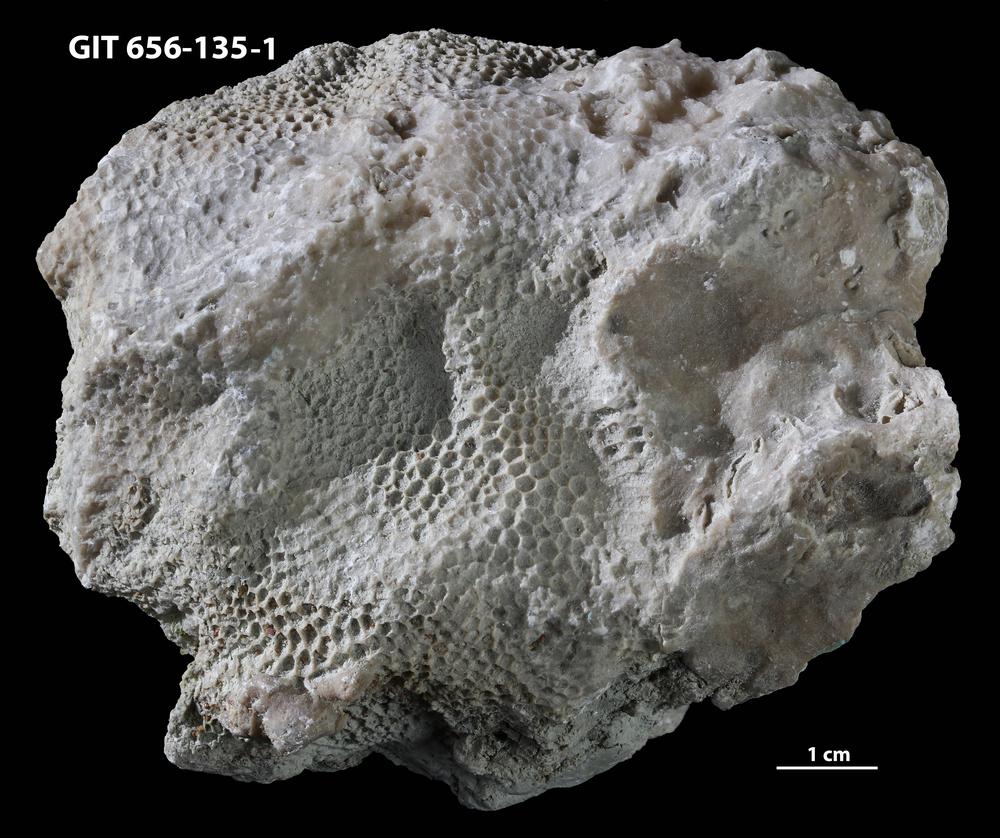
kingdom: Animalia
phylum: Cnidaria
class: Anthozoa
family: Favositidae
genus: Favosites
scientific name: Favosites
